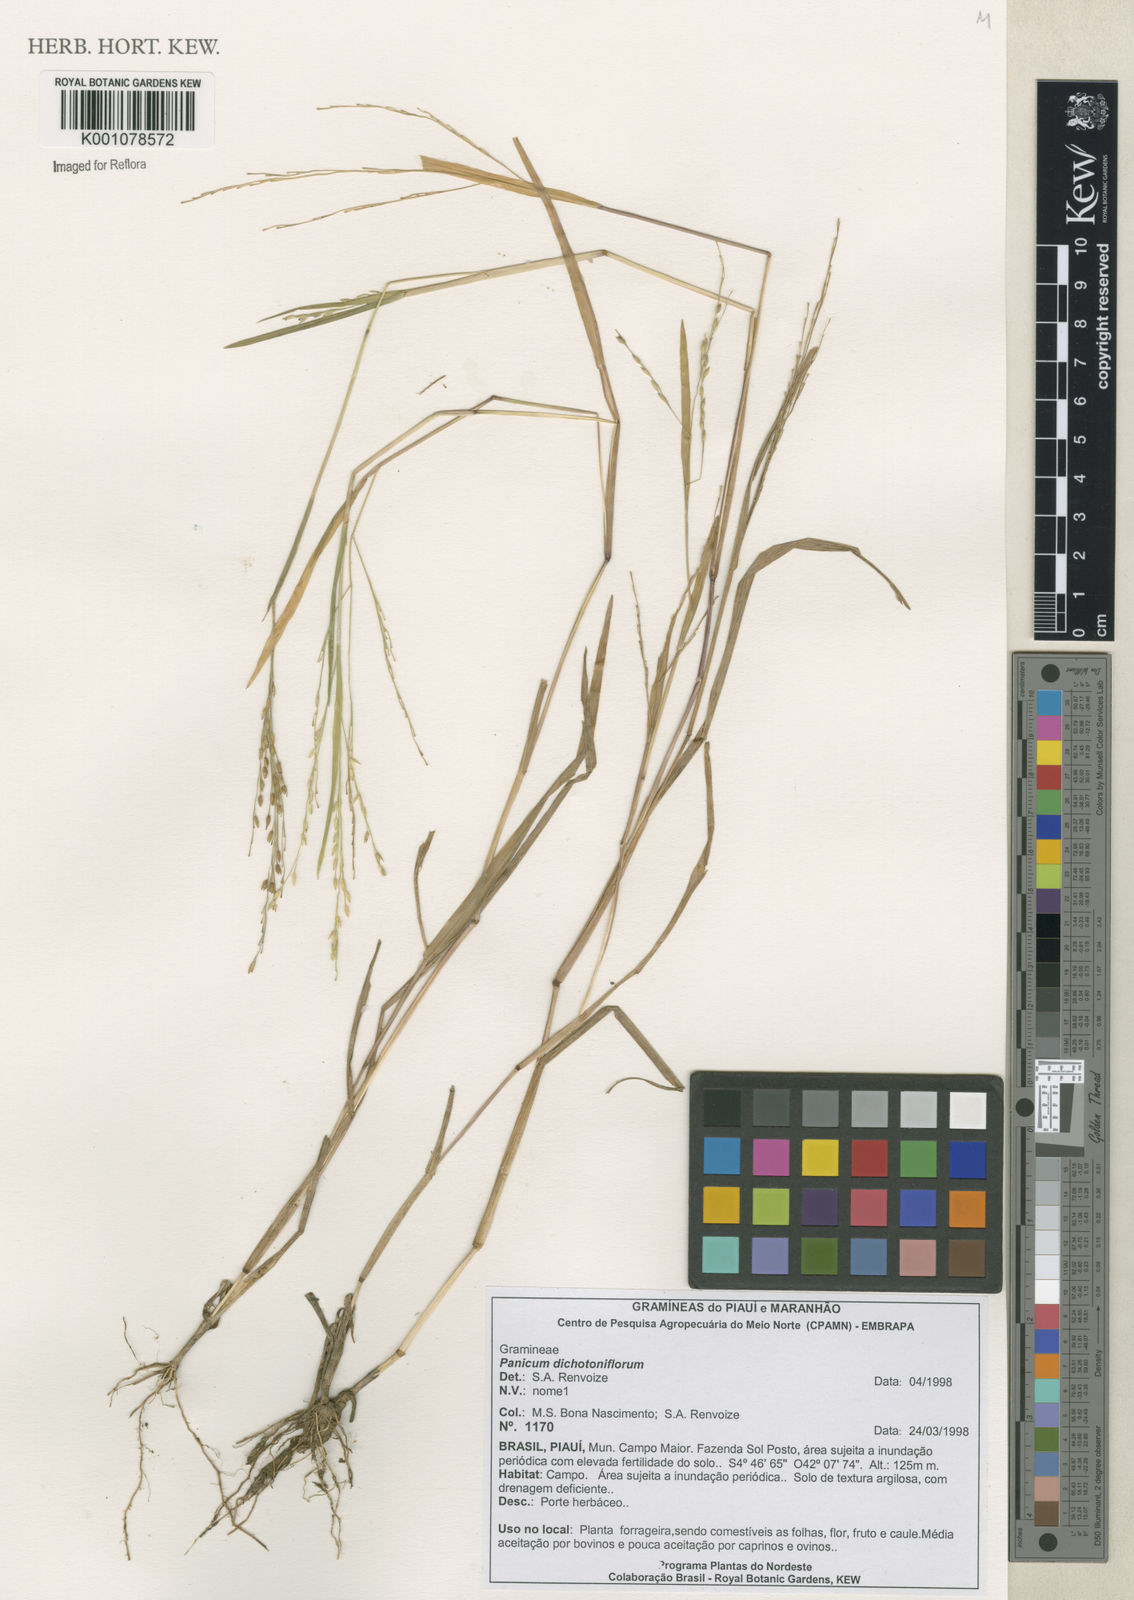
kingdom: Plantae
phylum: Tracheophyta
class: Liliopsida
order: Poales
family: Poaceae
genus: Panicum
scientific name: Panicum dichotomiflorum
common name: Autumn millet
